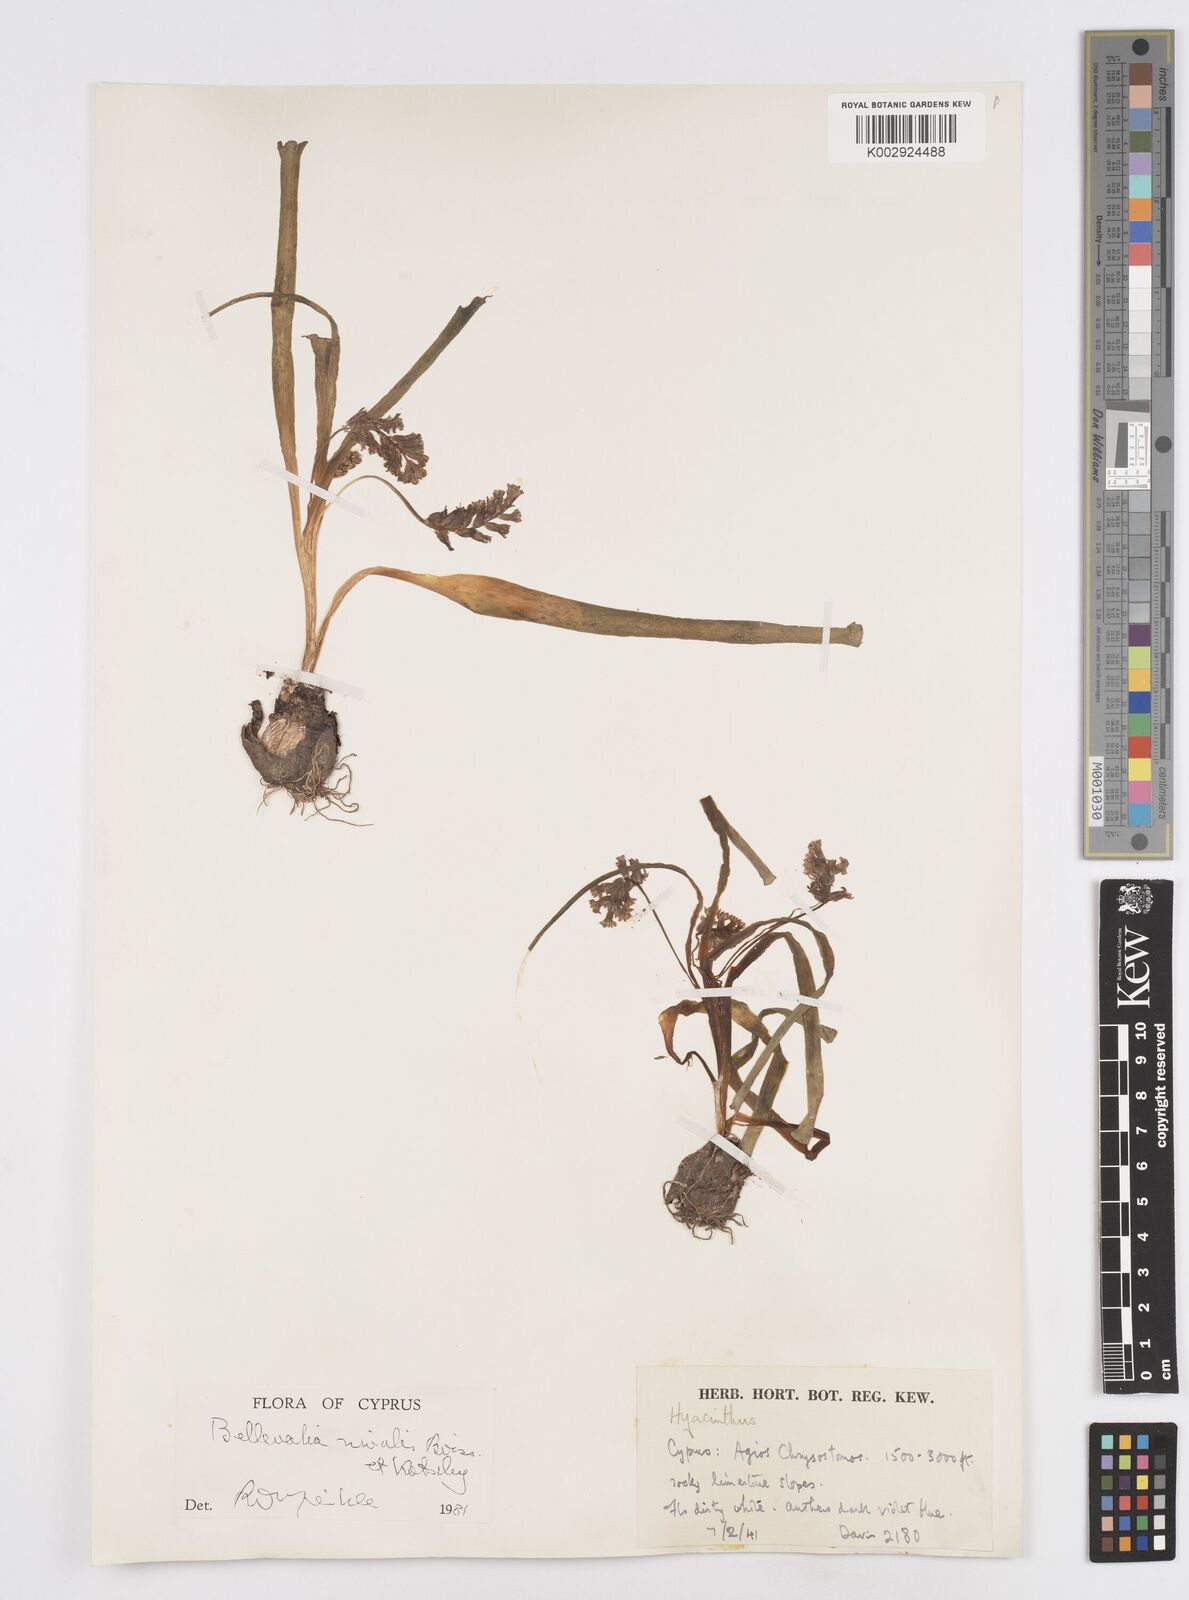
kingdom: Plantae
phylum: Tracheophyta
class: Liliopsida
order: Asparagales
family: Asparagaceae
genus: Bellevalia
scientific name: Bellevalia nivalis
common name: Snow bellevalia
